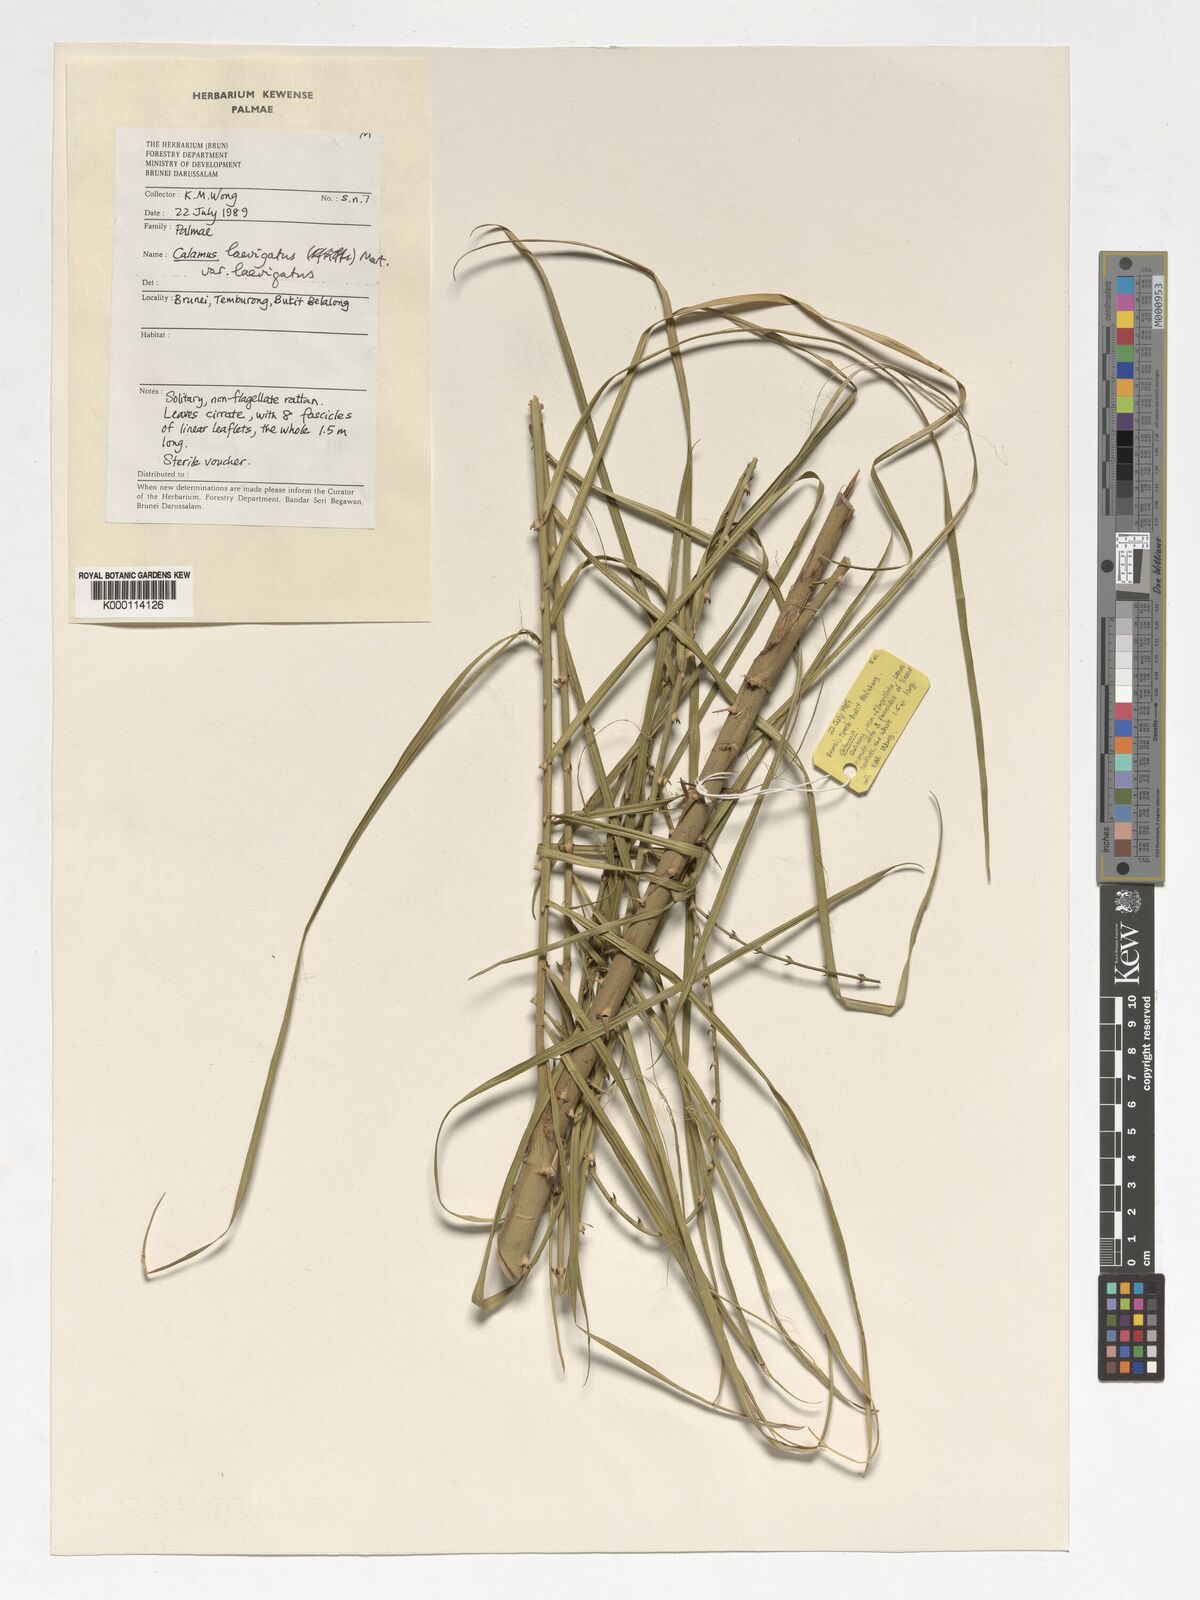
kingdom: Plantae
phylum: Tracheophyta
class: Liliopsida
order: Arecales
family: Arecaceae
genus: Calamus
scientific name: Calamus
